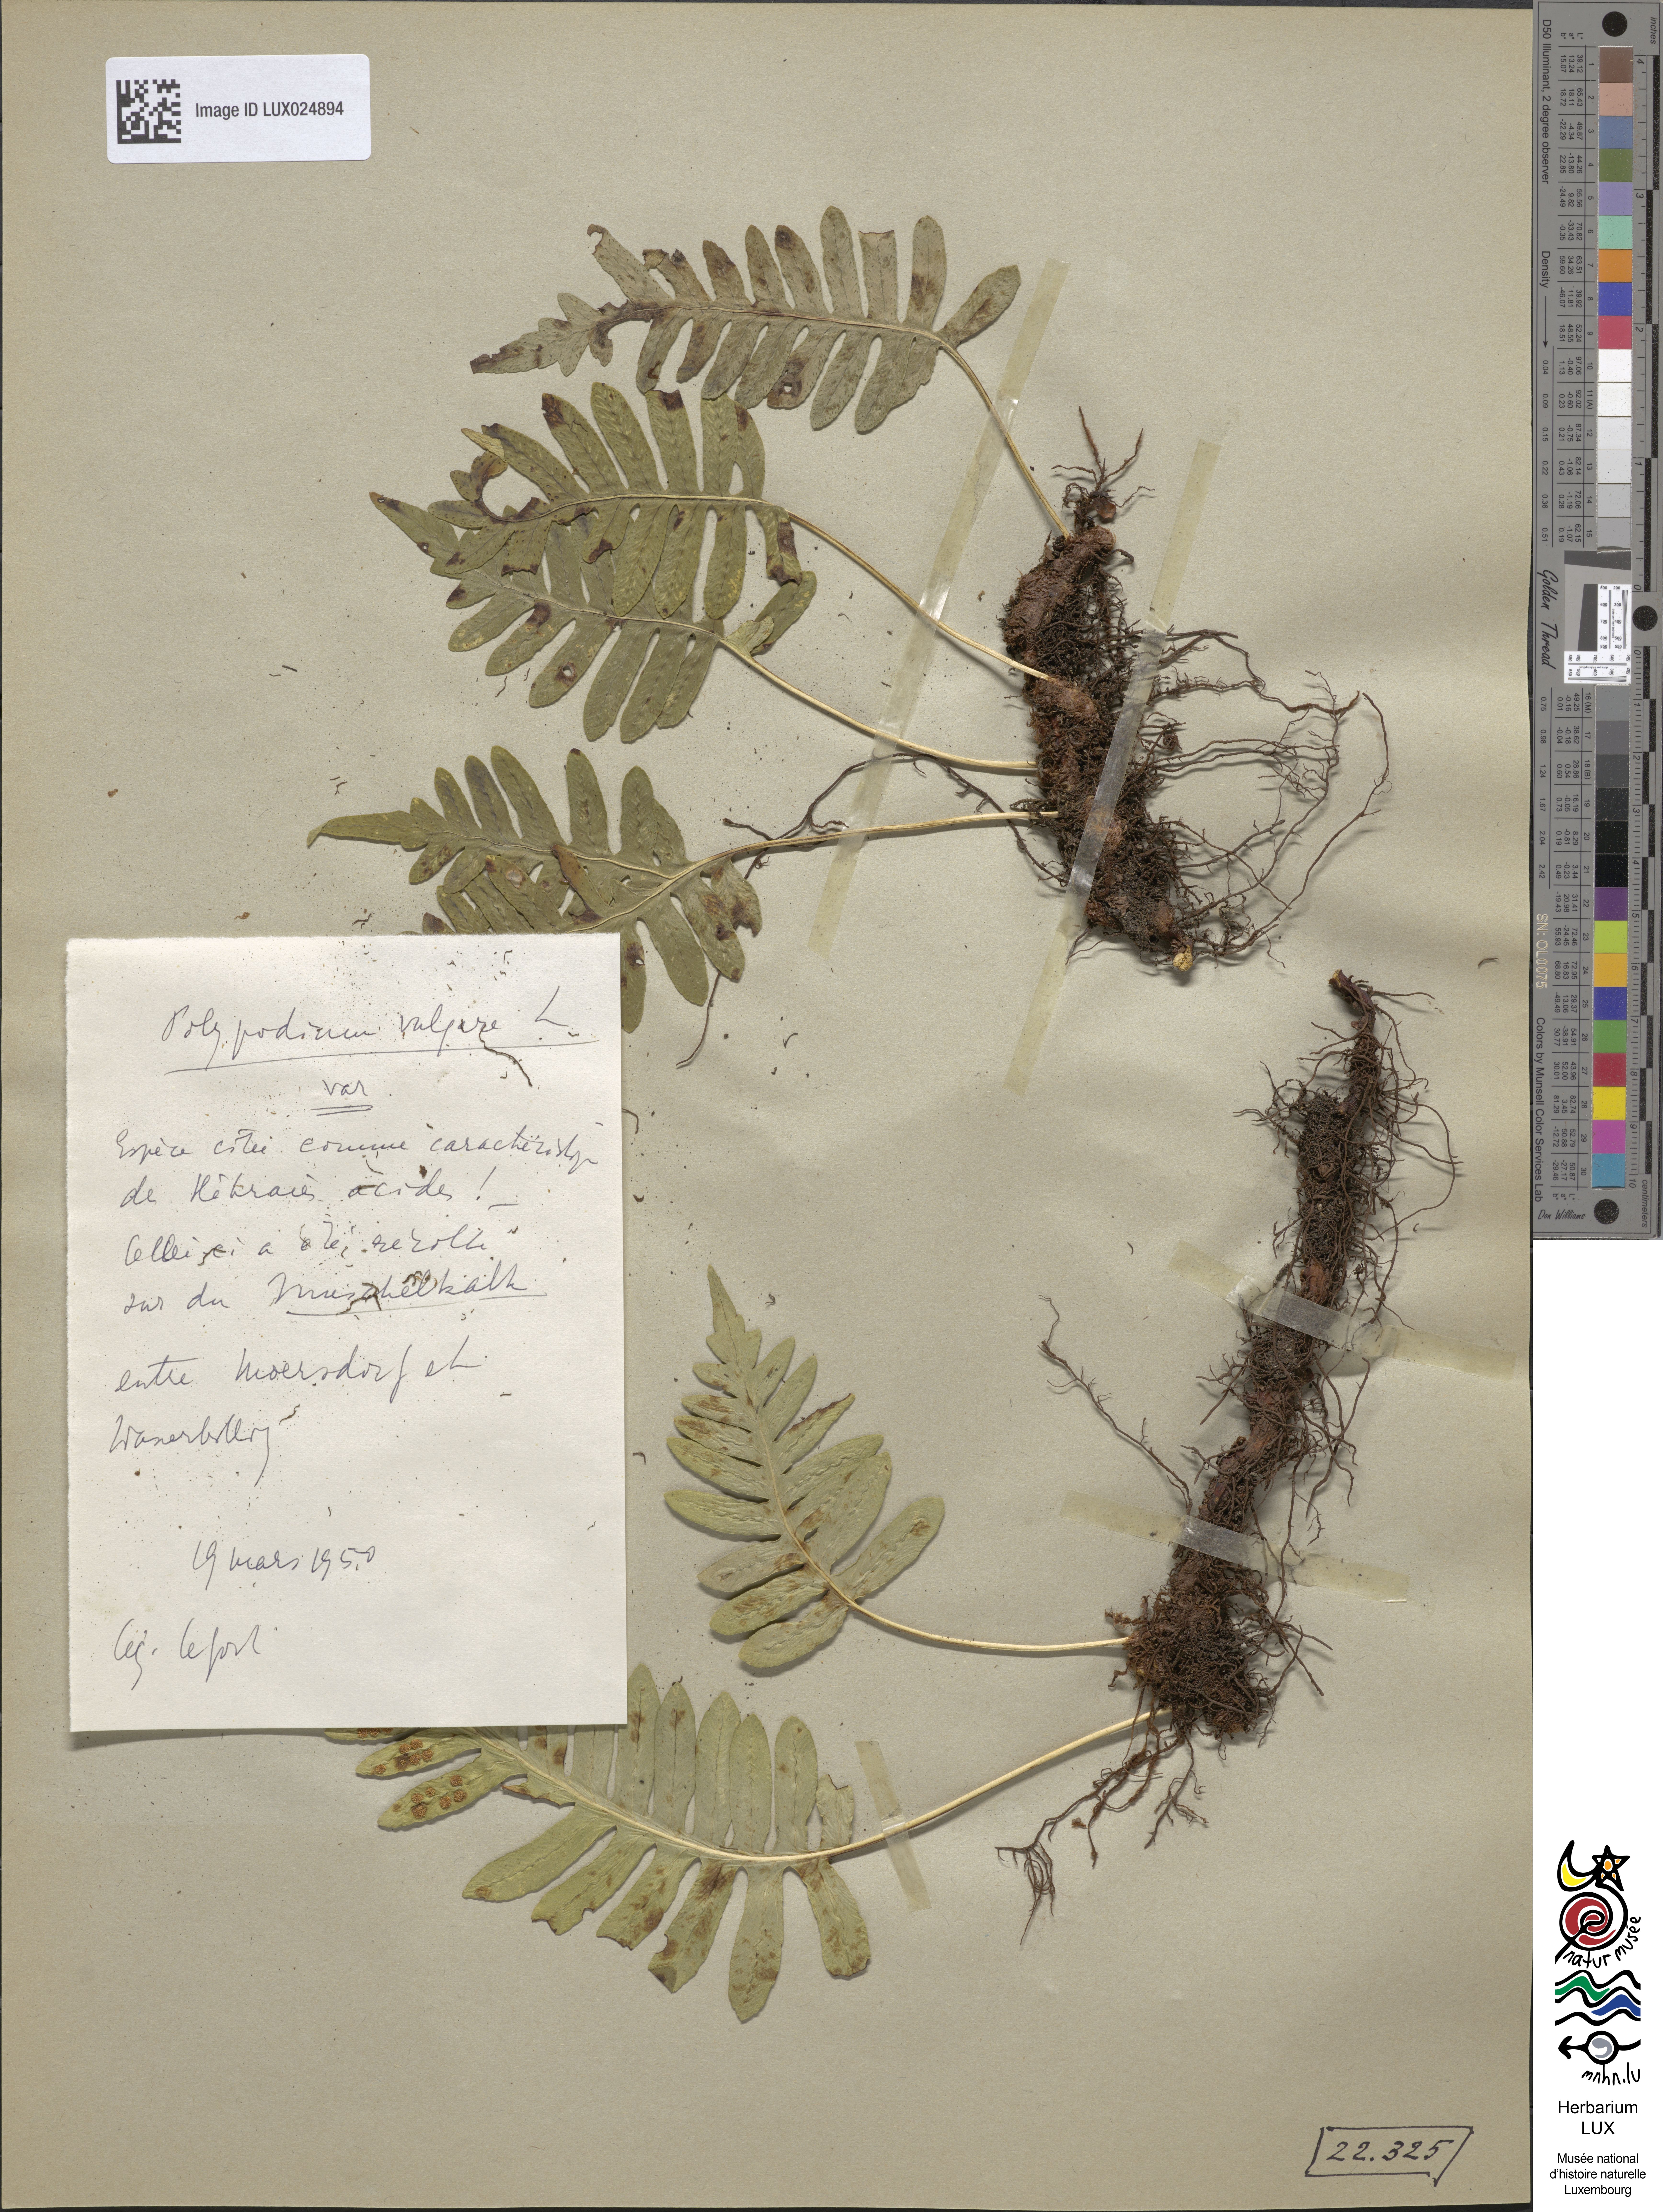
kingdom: Plantae
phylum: Tracheophyta
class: Polypodiopsida
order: Polypodiales
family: Polypodiaceae
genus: Polypodium
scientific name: Polypodium vulgare
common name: Common polypody
